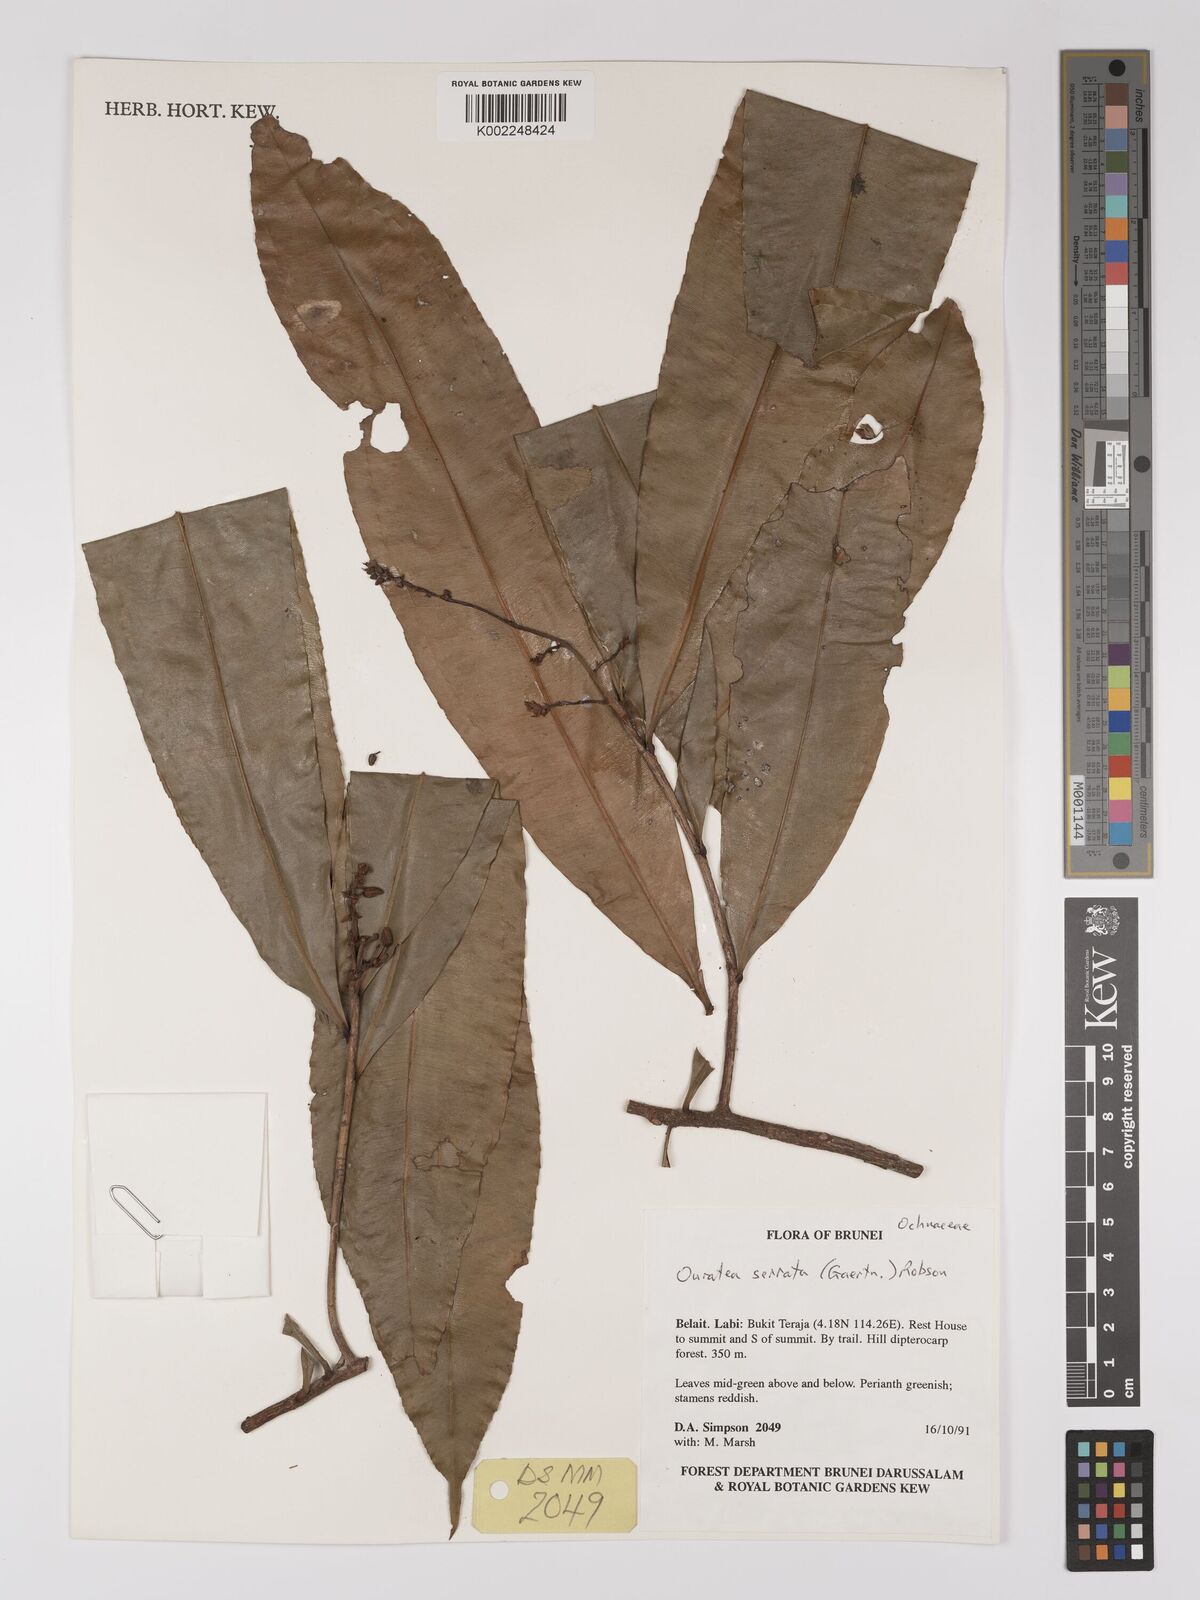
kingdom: Plantae
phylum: Tracheophyta
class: Magnoliopsida
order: Malpighiales
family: Ochnaceae
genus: Gomphia
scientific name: Gomphia serrata
